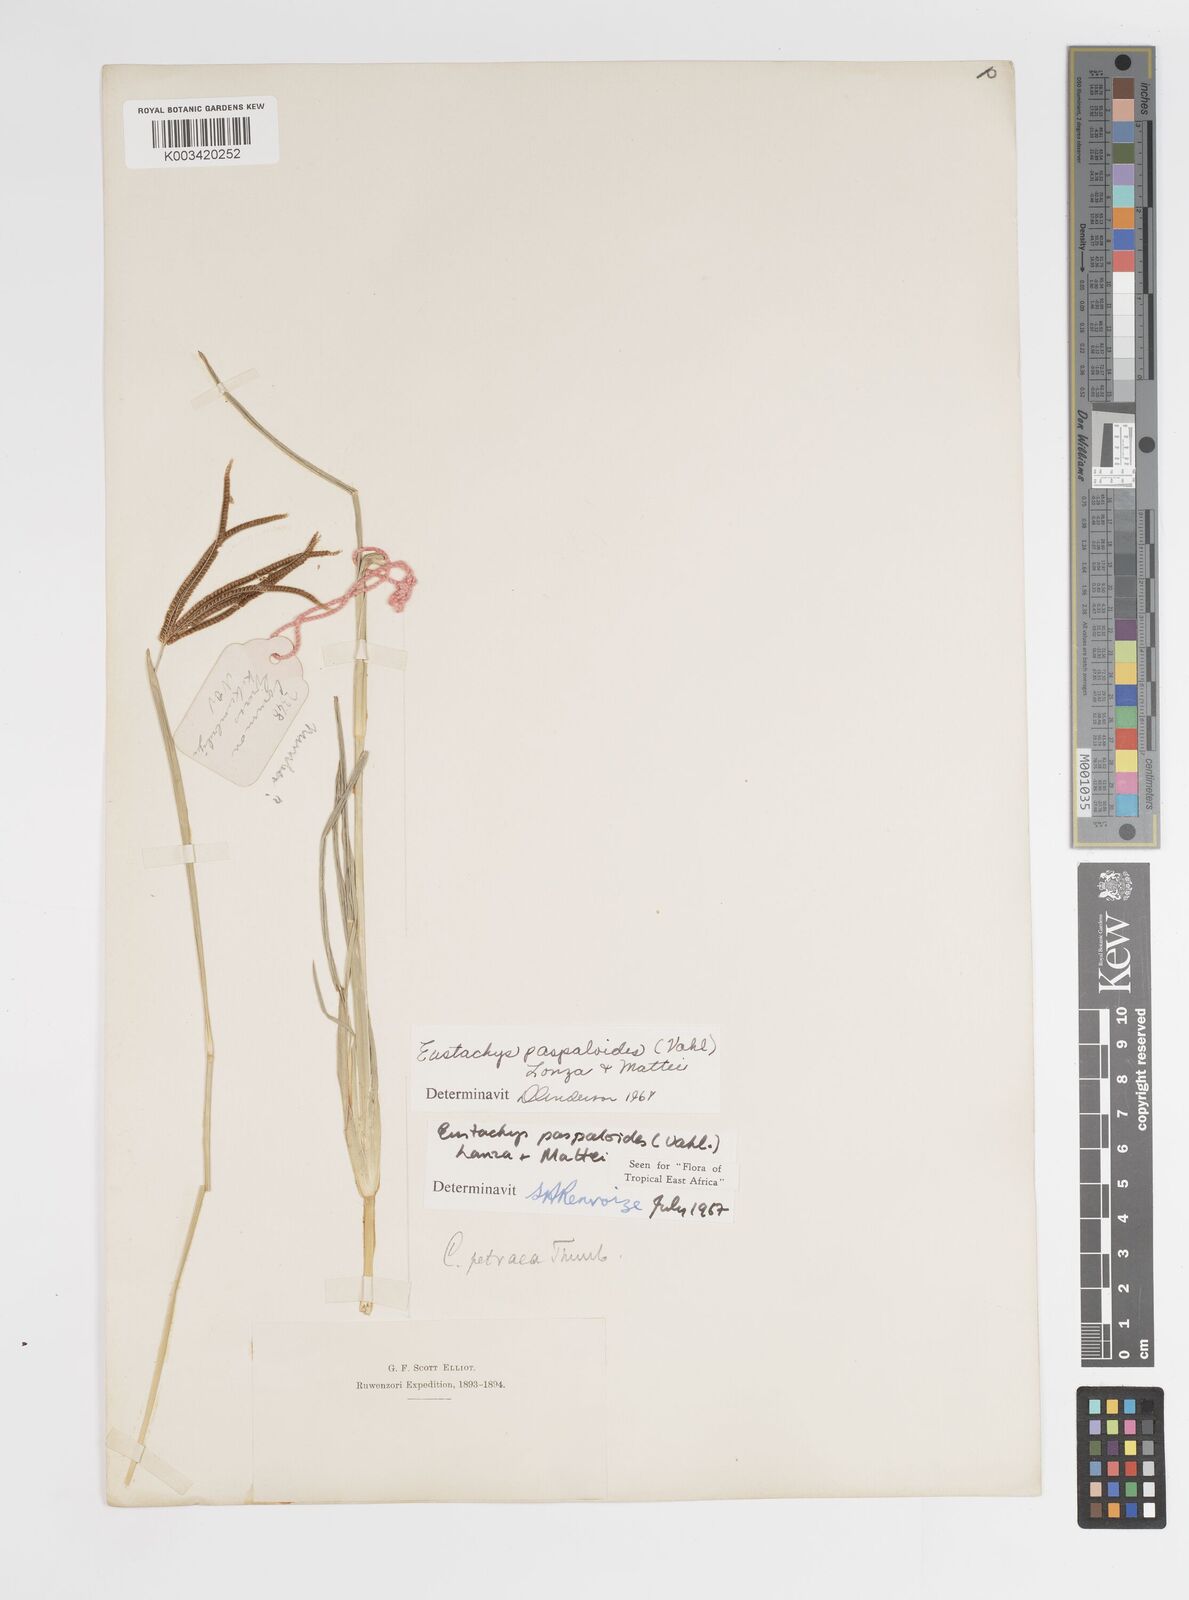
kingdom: Plantae
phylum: Tracheophyta
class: Liliopsida
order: Poales
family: Poaceae
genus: Eustachys
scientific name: Eustachys paspaloides
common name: Caribbean fingergrass
